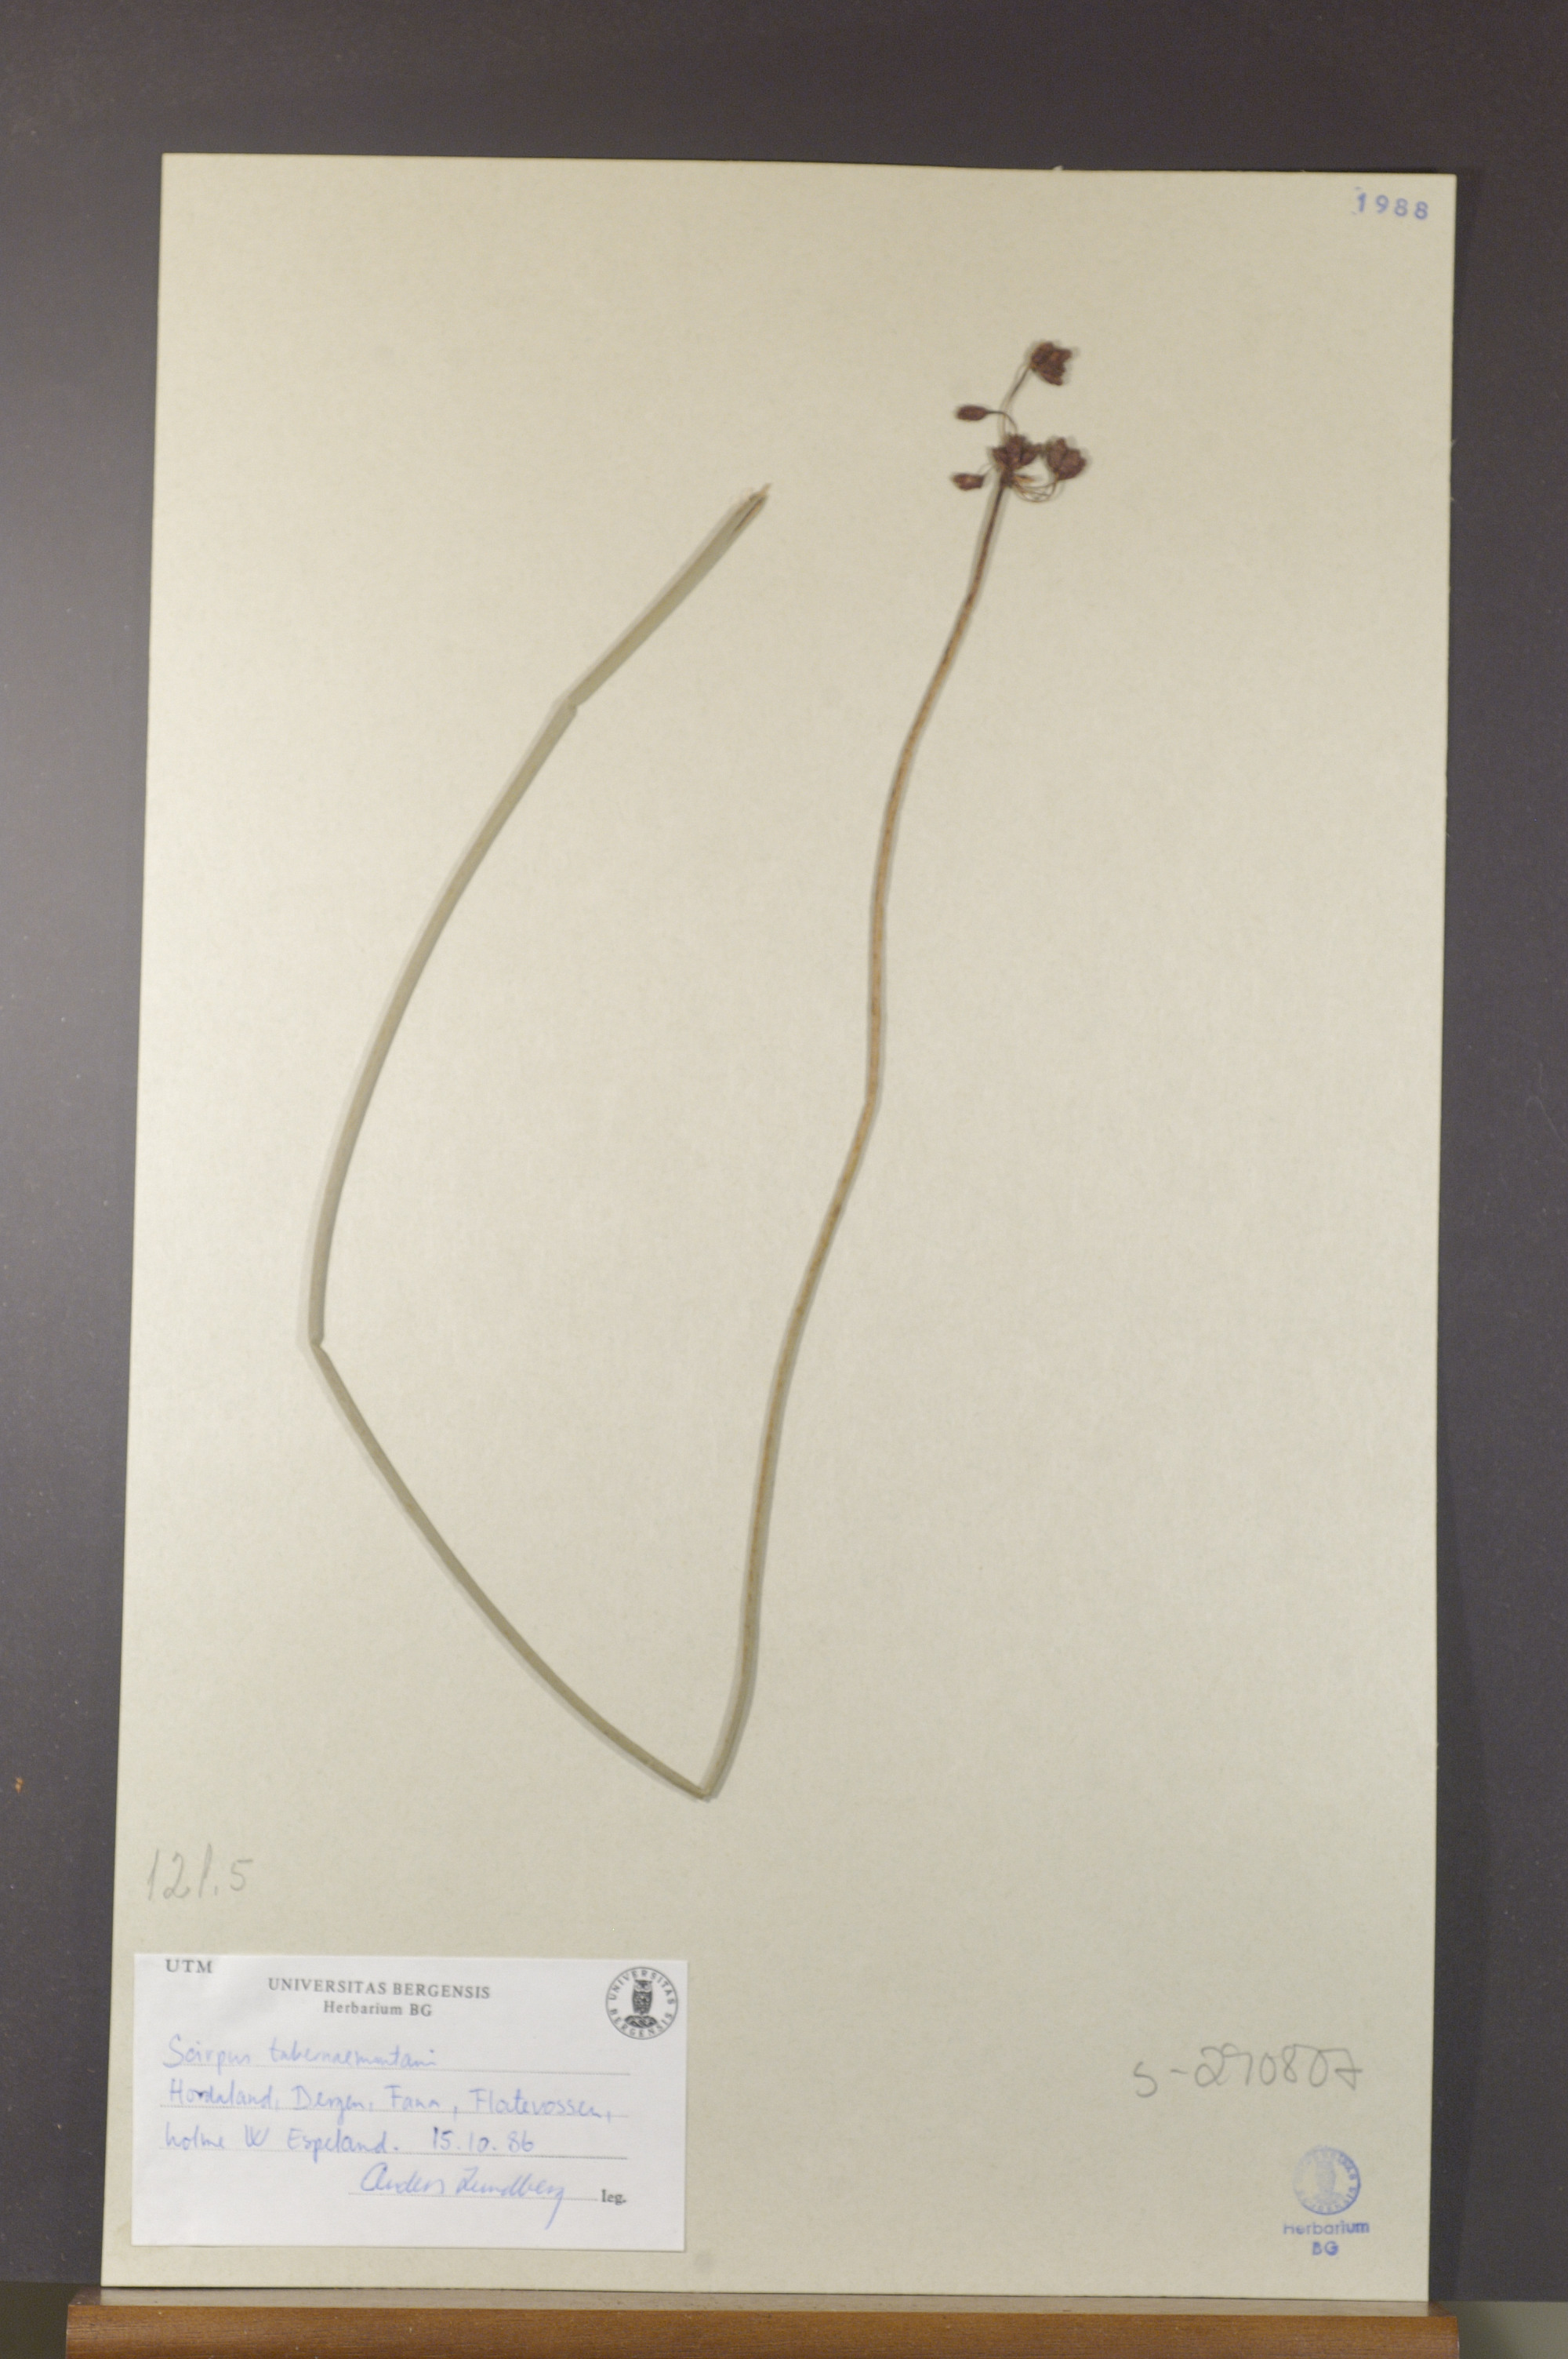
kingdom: Plantae
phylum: Tracheophyta
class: Liliopsida
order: Poales
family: Cyperaceae
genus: Schoenoplectus
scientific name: Schoenoplectus tabernaemontani
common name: Grey club-rush
